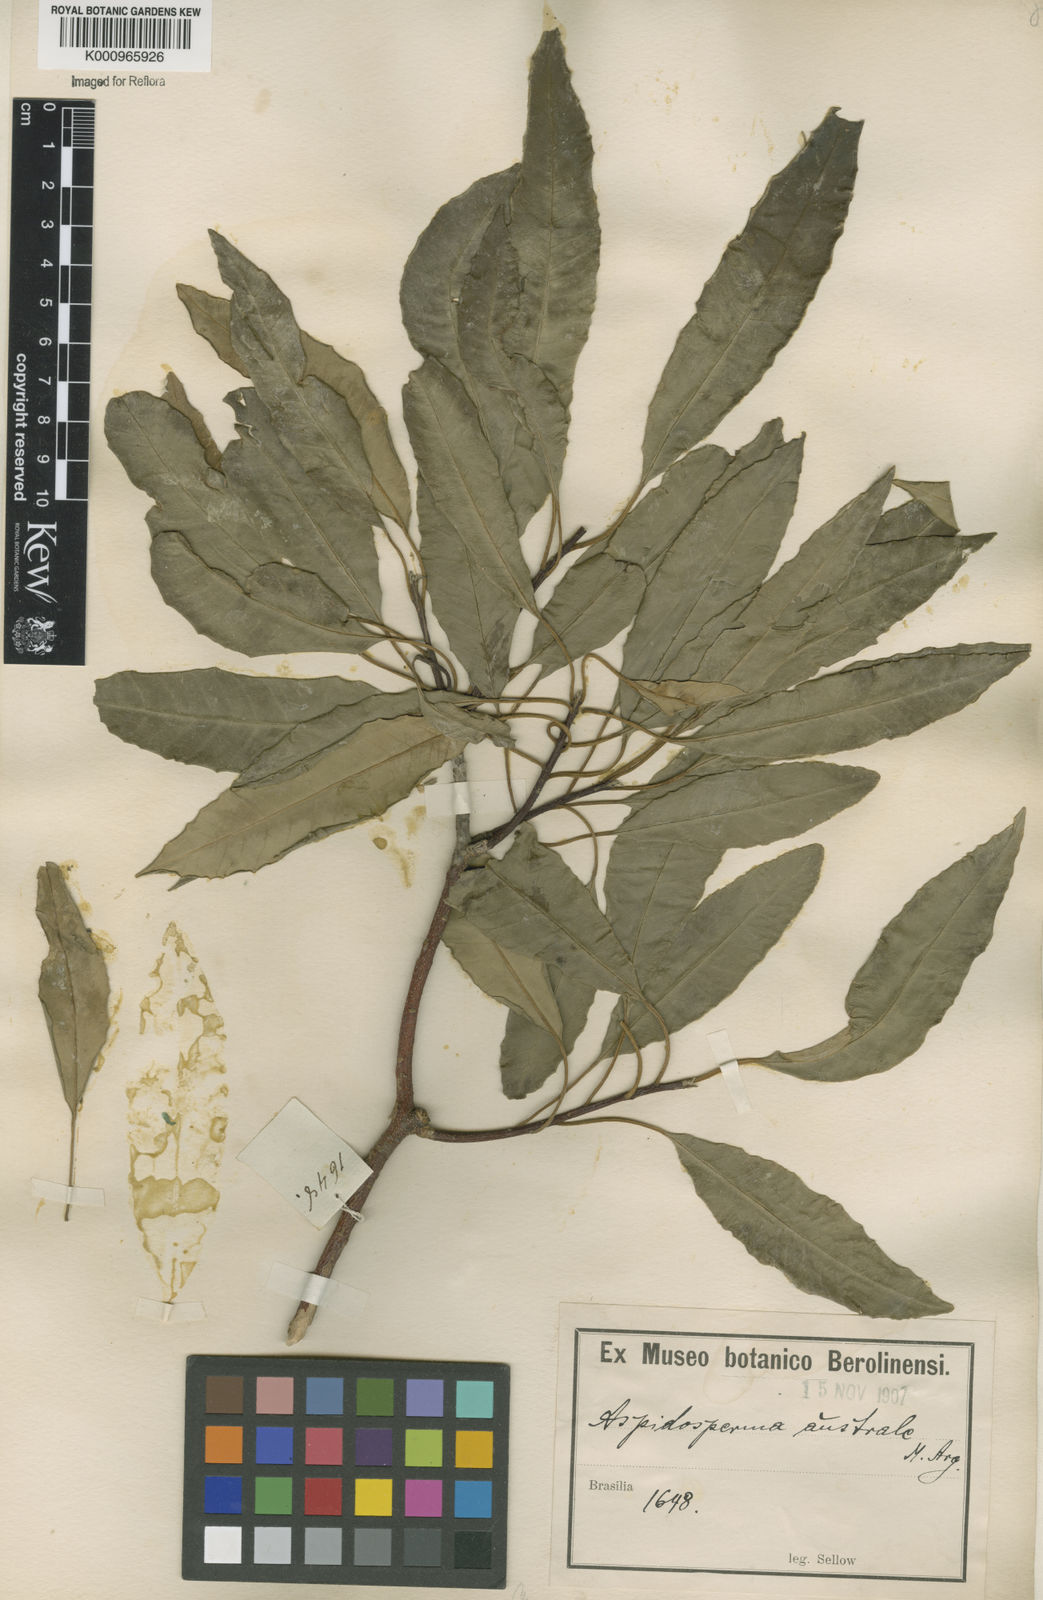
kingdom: Plantae
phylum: Tracheophyta
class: Magnoliopsida
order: Gentianales
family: Apocynaceae
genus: Aspidosperma
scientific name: Aspidosperma
